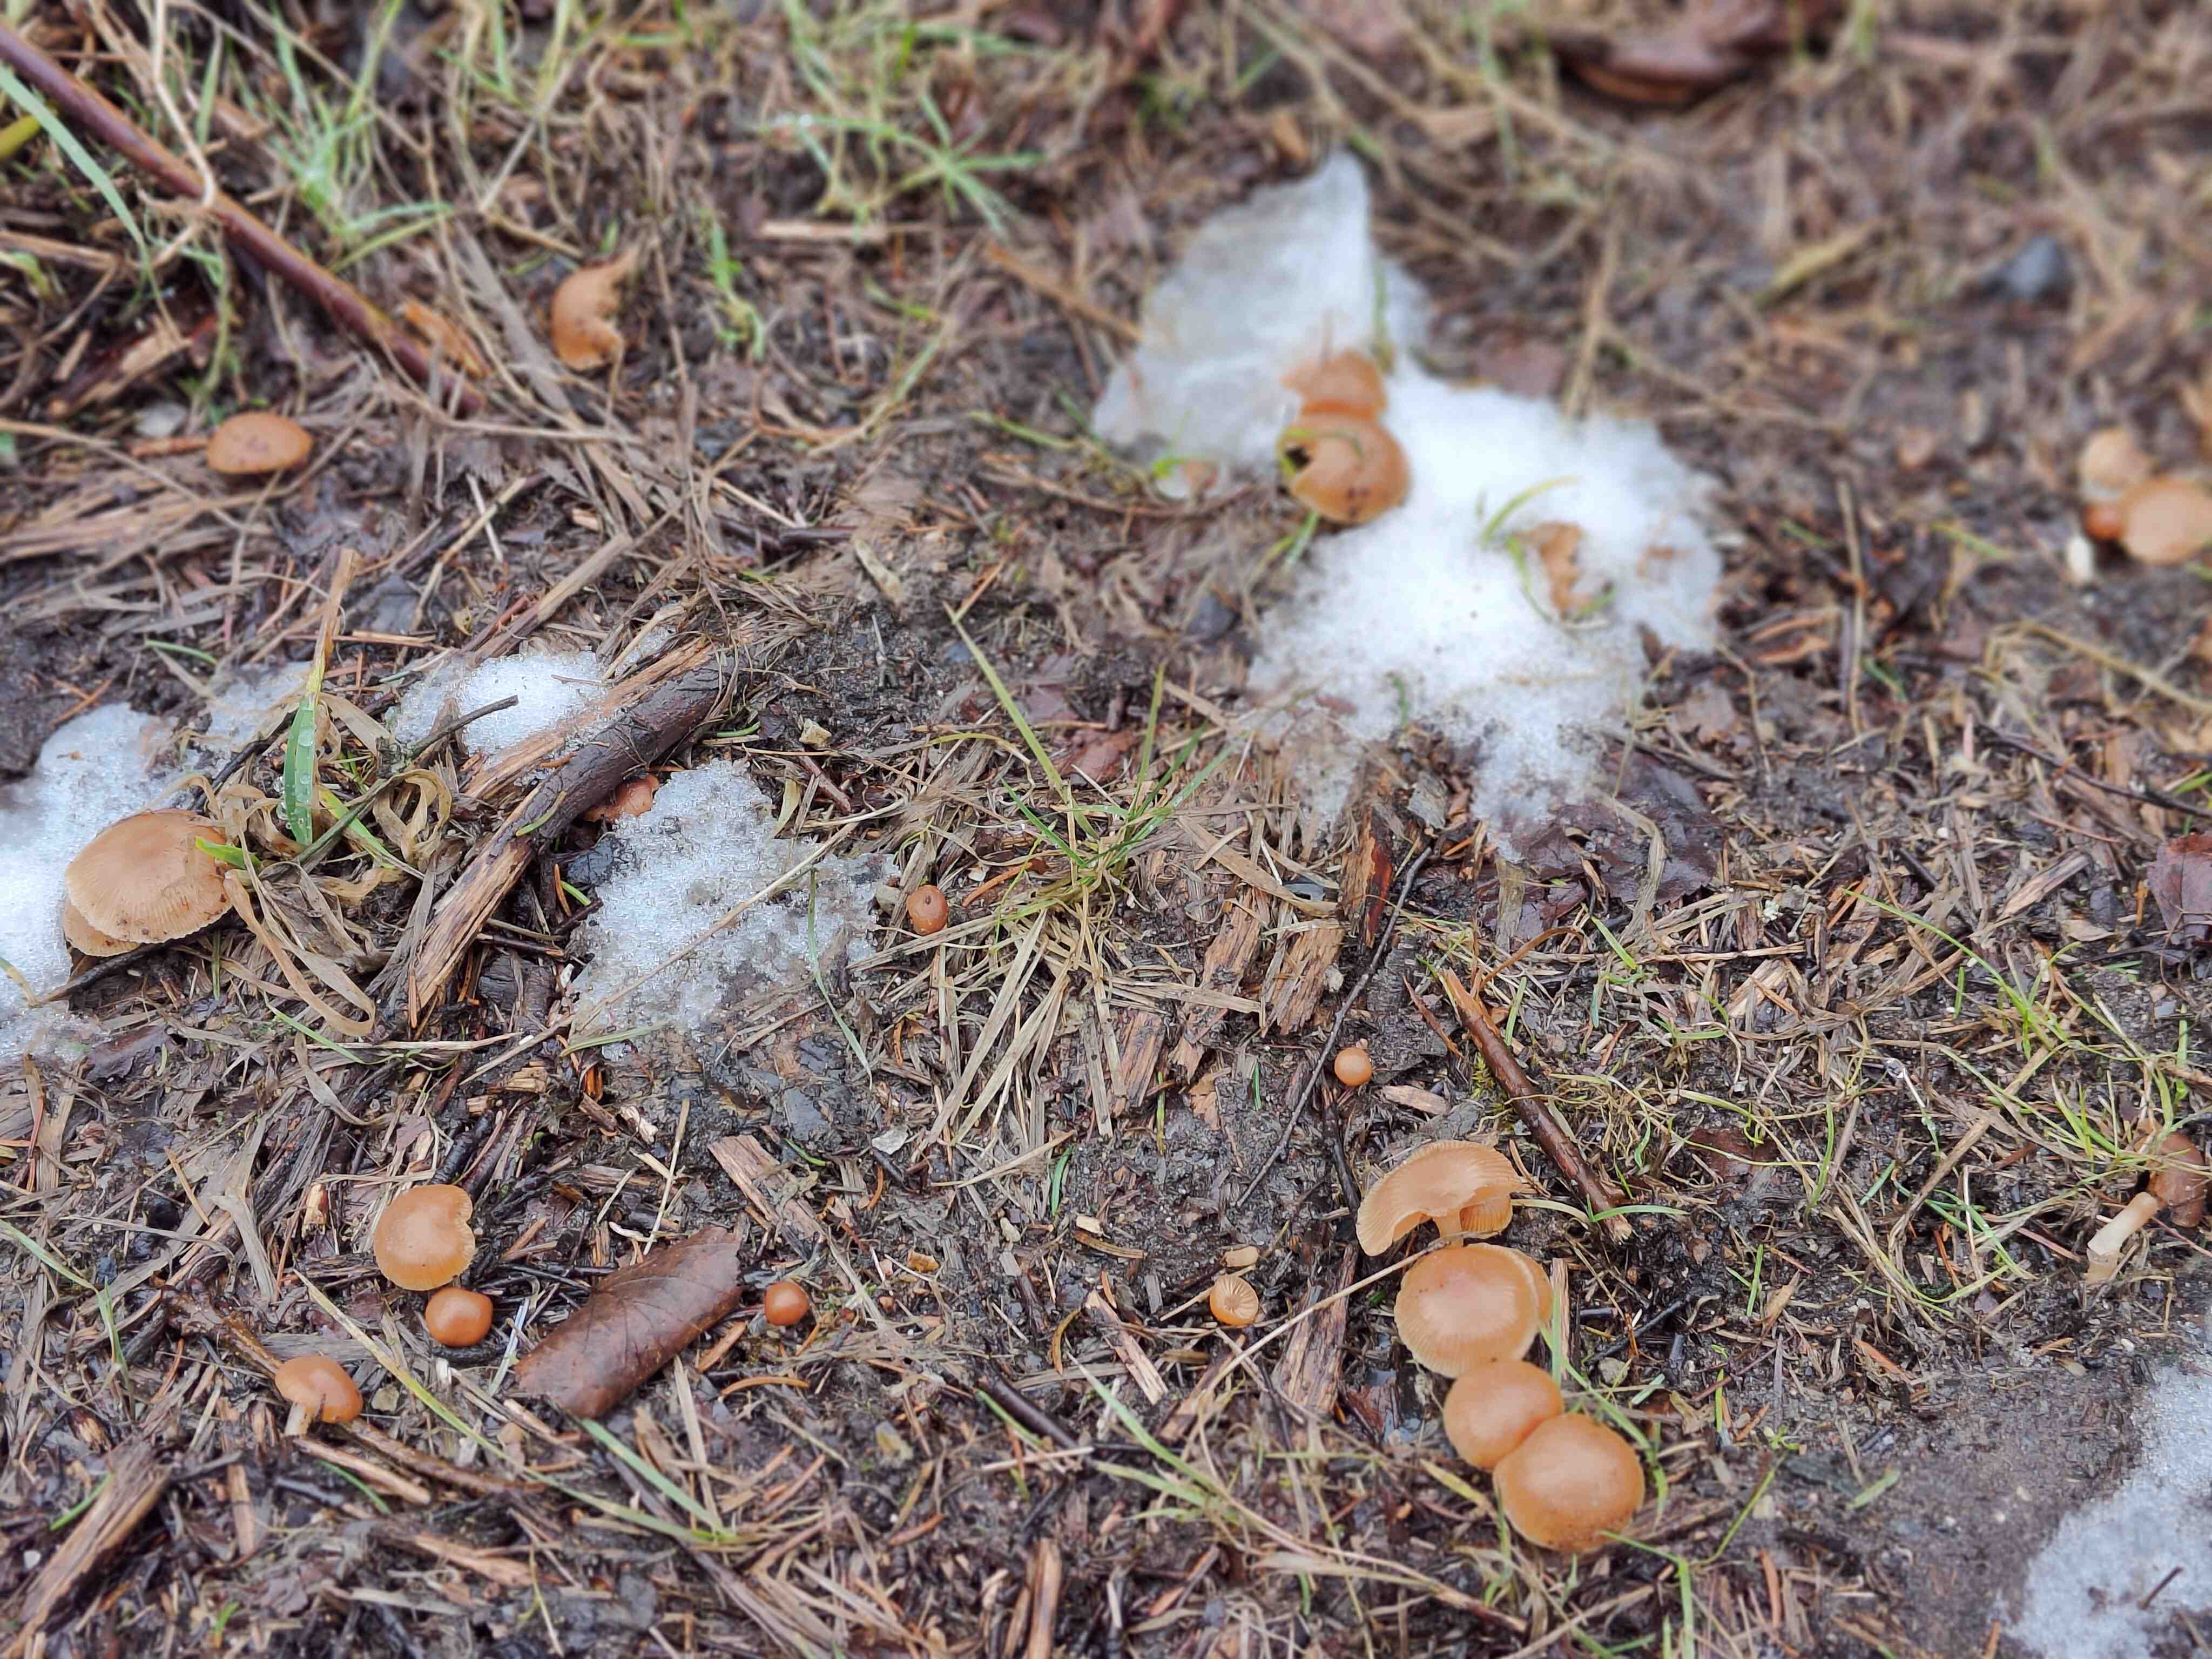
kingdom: Fungi
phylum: Basidiomycota
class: Agaricomycetes
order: Agaricales
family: Tubariaceae
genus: Tubaria
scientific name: Tubaria furfuracea
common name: kliddet fnughat
